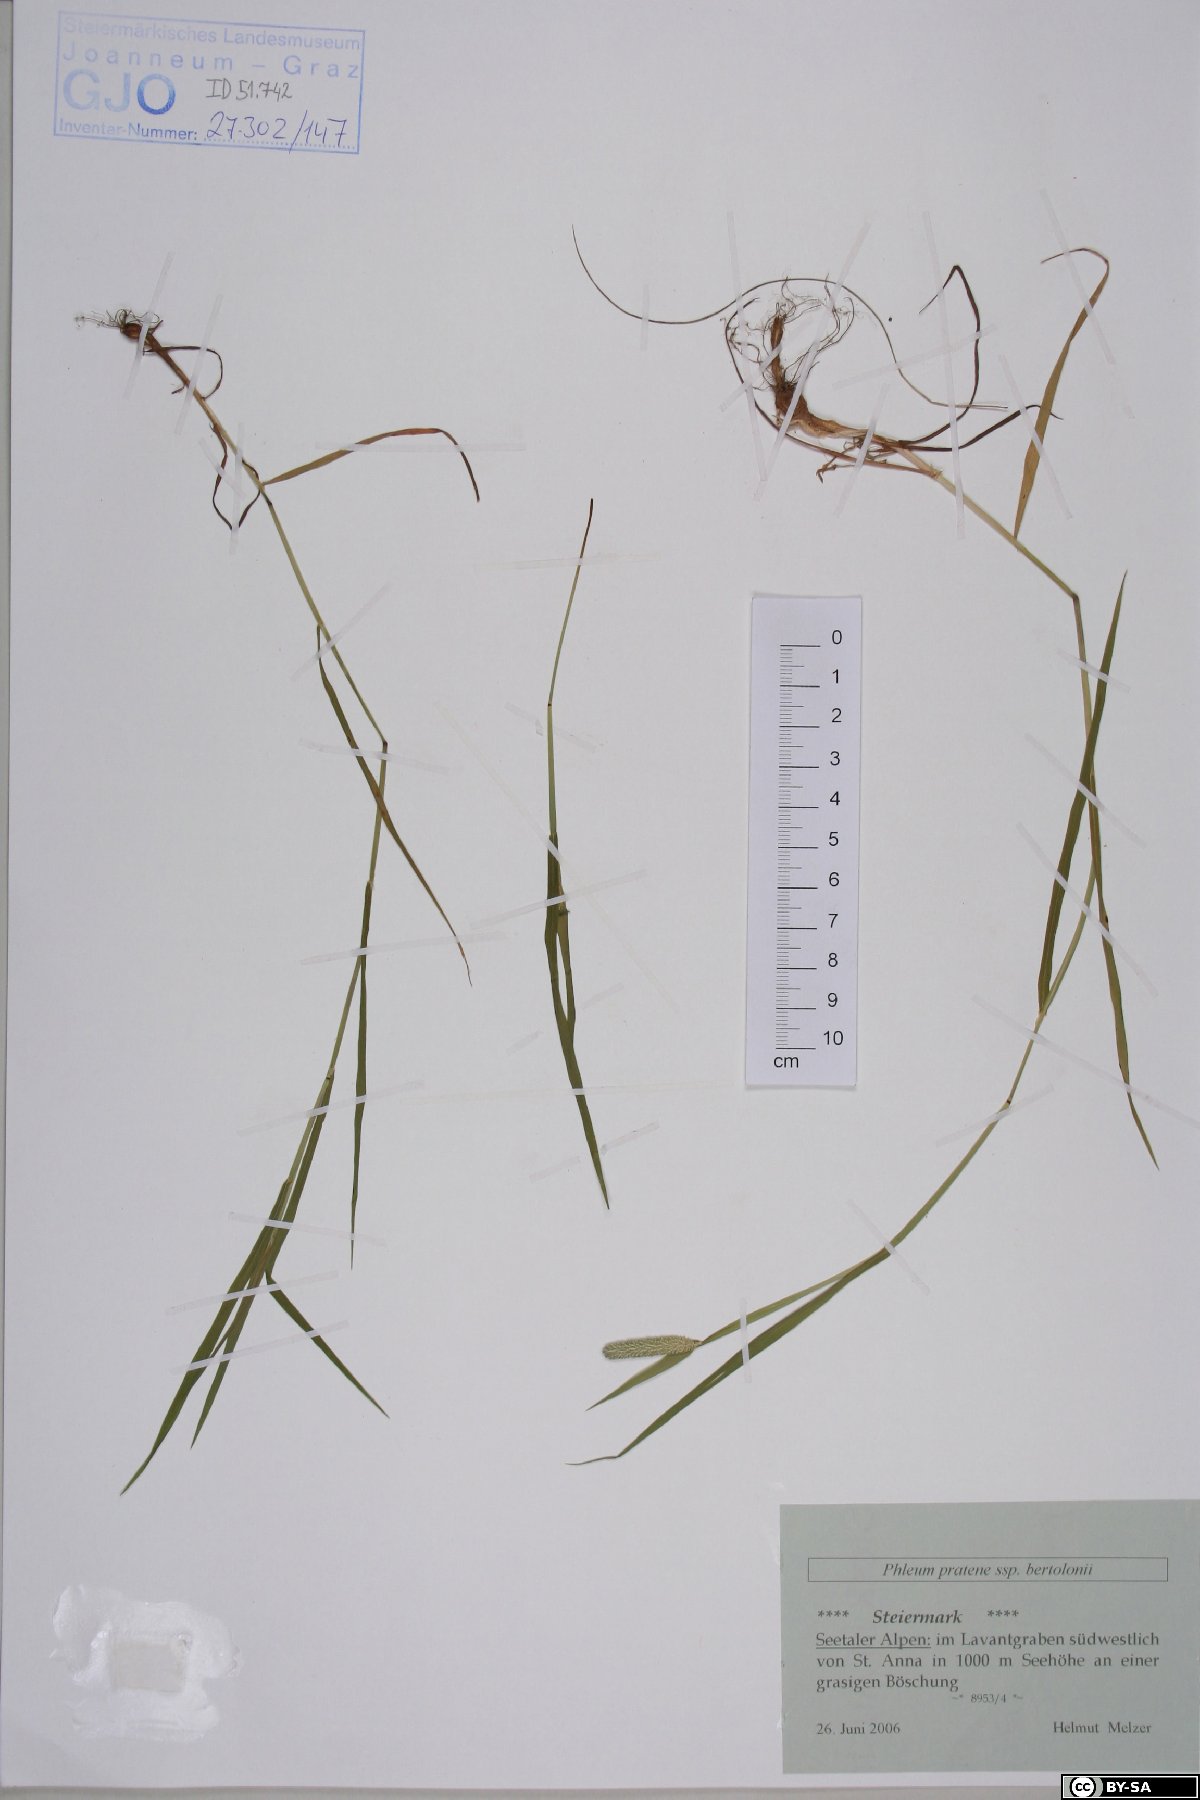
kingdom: Plantae
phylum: Tracheophyta
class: Liliopsida
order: Poales
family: Poaceae
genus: Phleum
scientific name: Phleum bertolonii
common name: Smaller cat's-tail
